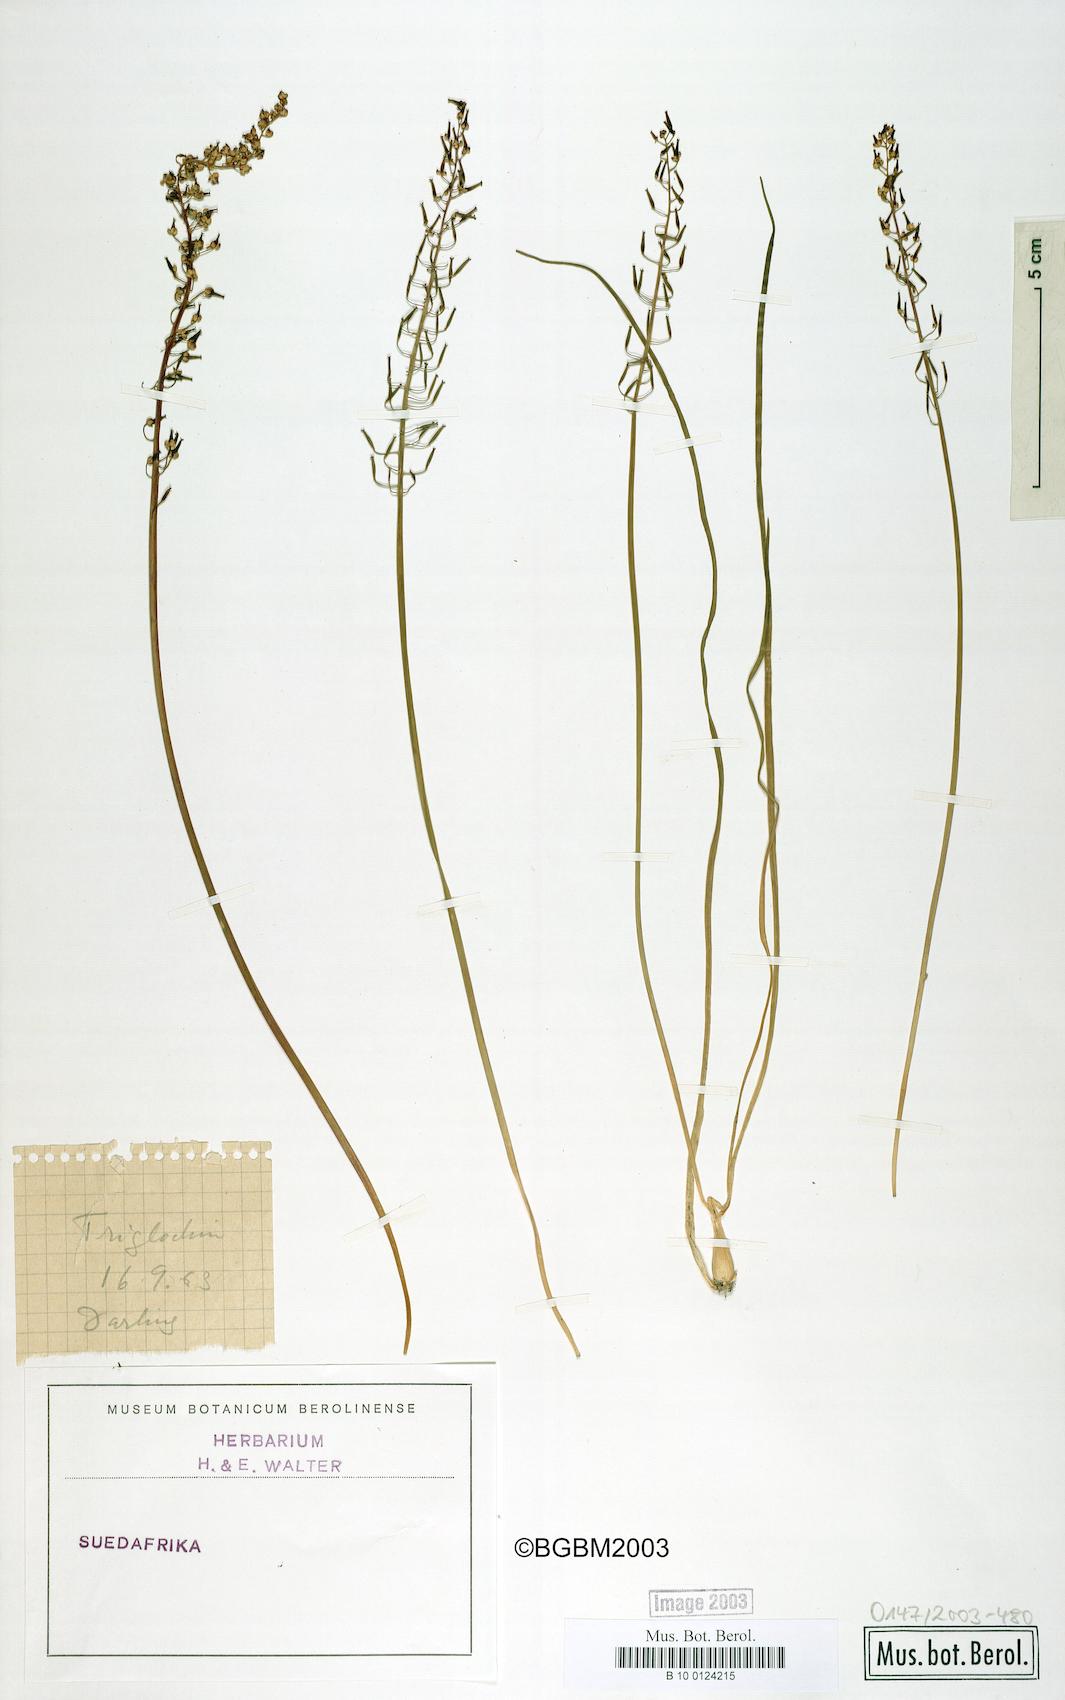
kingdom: Plantae
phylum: Tracheophyta
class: Liliopsida
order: Alismatales
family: Juncaginaceae
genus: Triglochin
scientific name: Triglochin bulbosa
